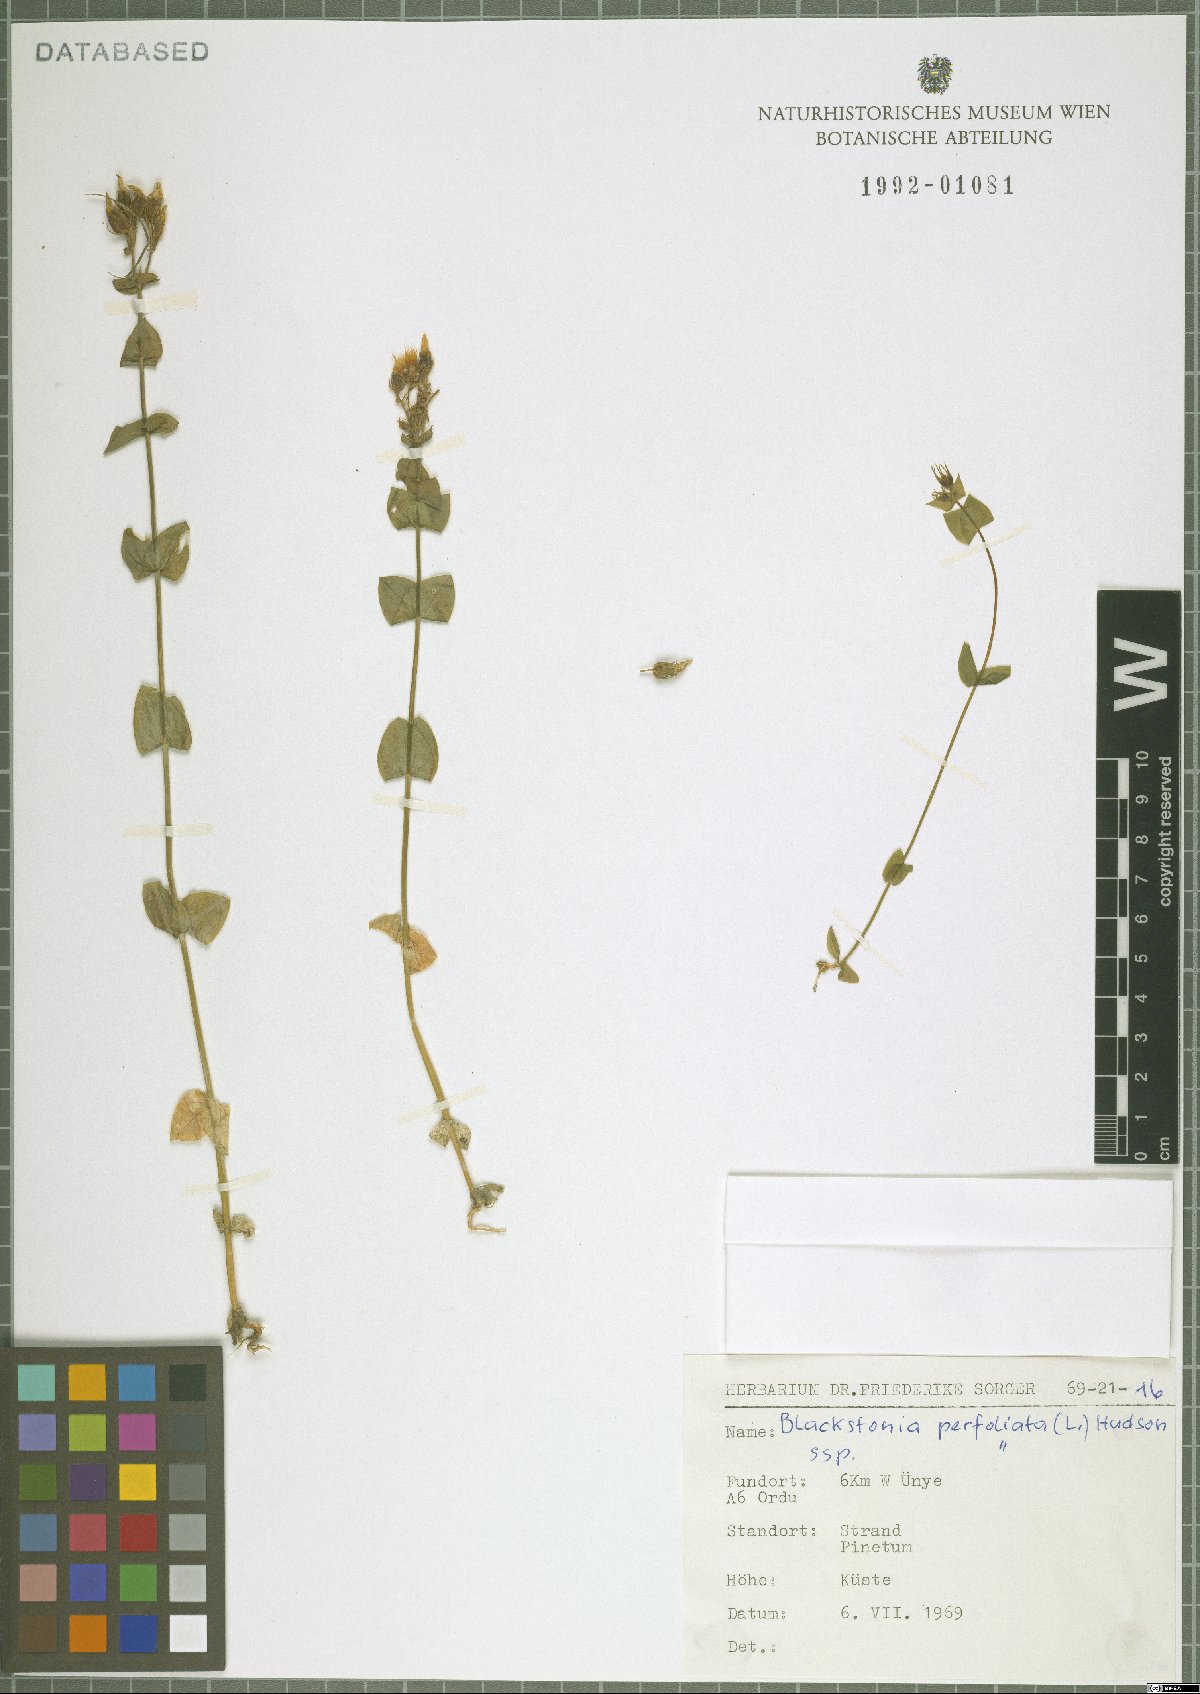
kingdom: Plantae
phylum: Tracheophyta
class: Magnoliopsida
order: Gentianales
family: Gentianaceae
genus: Blackstonia
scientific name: Blackstonia perfoliata
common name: Yellow-wort
